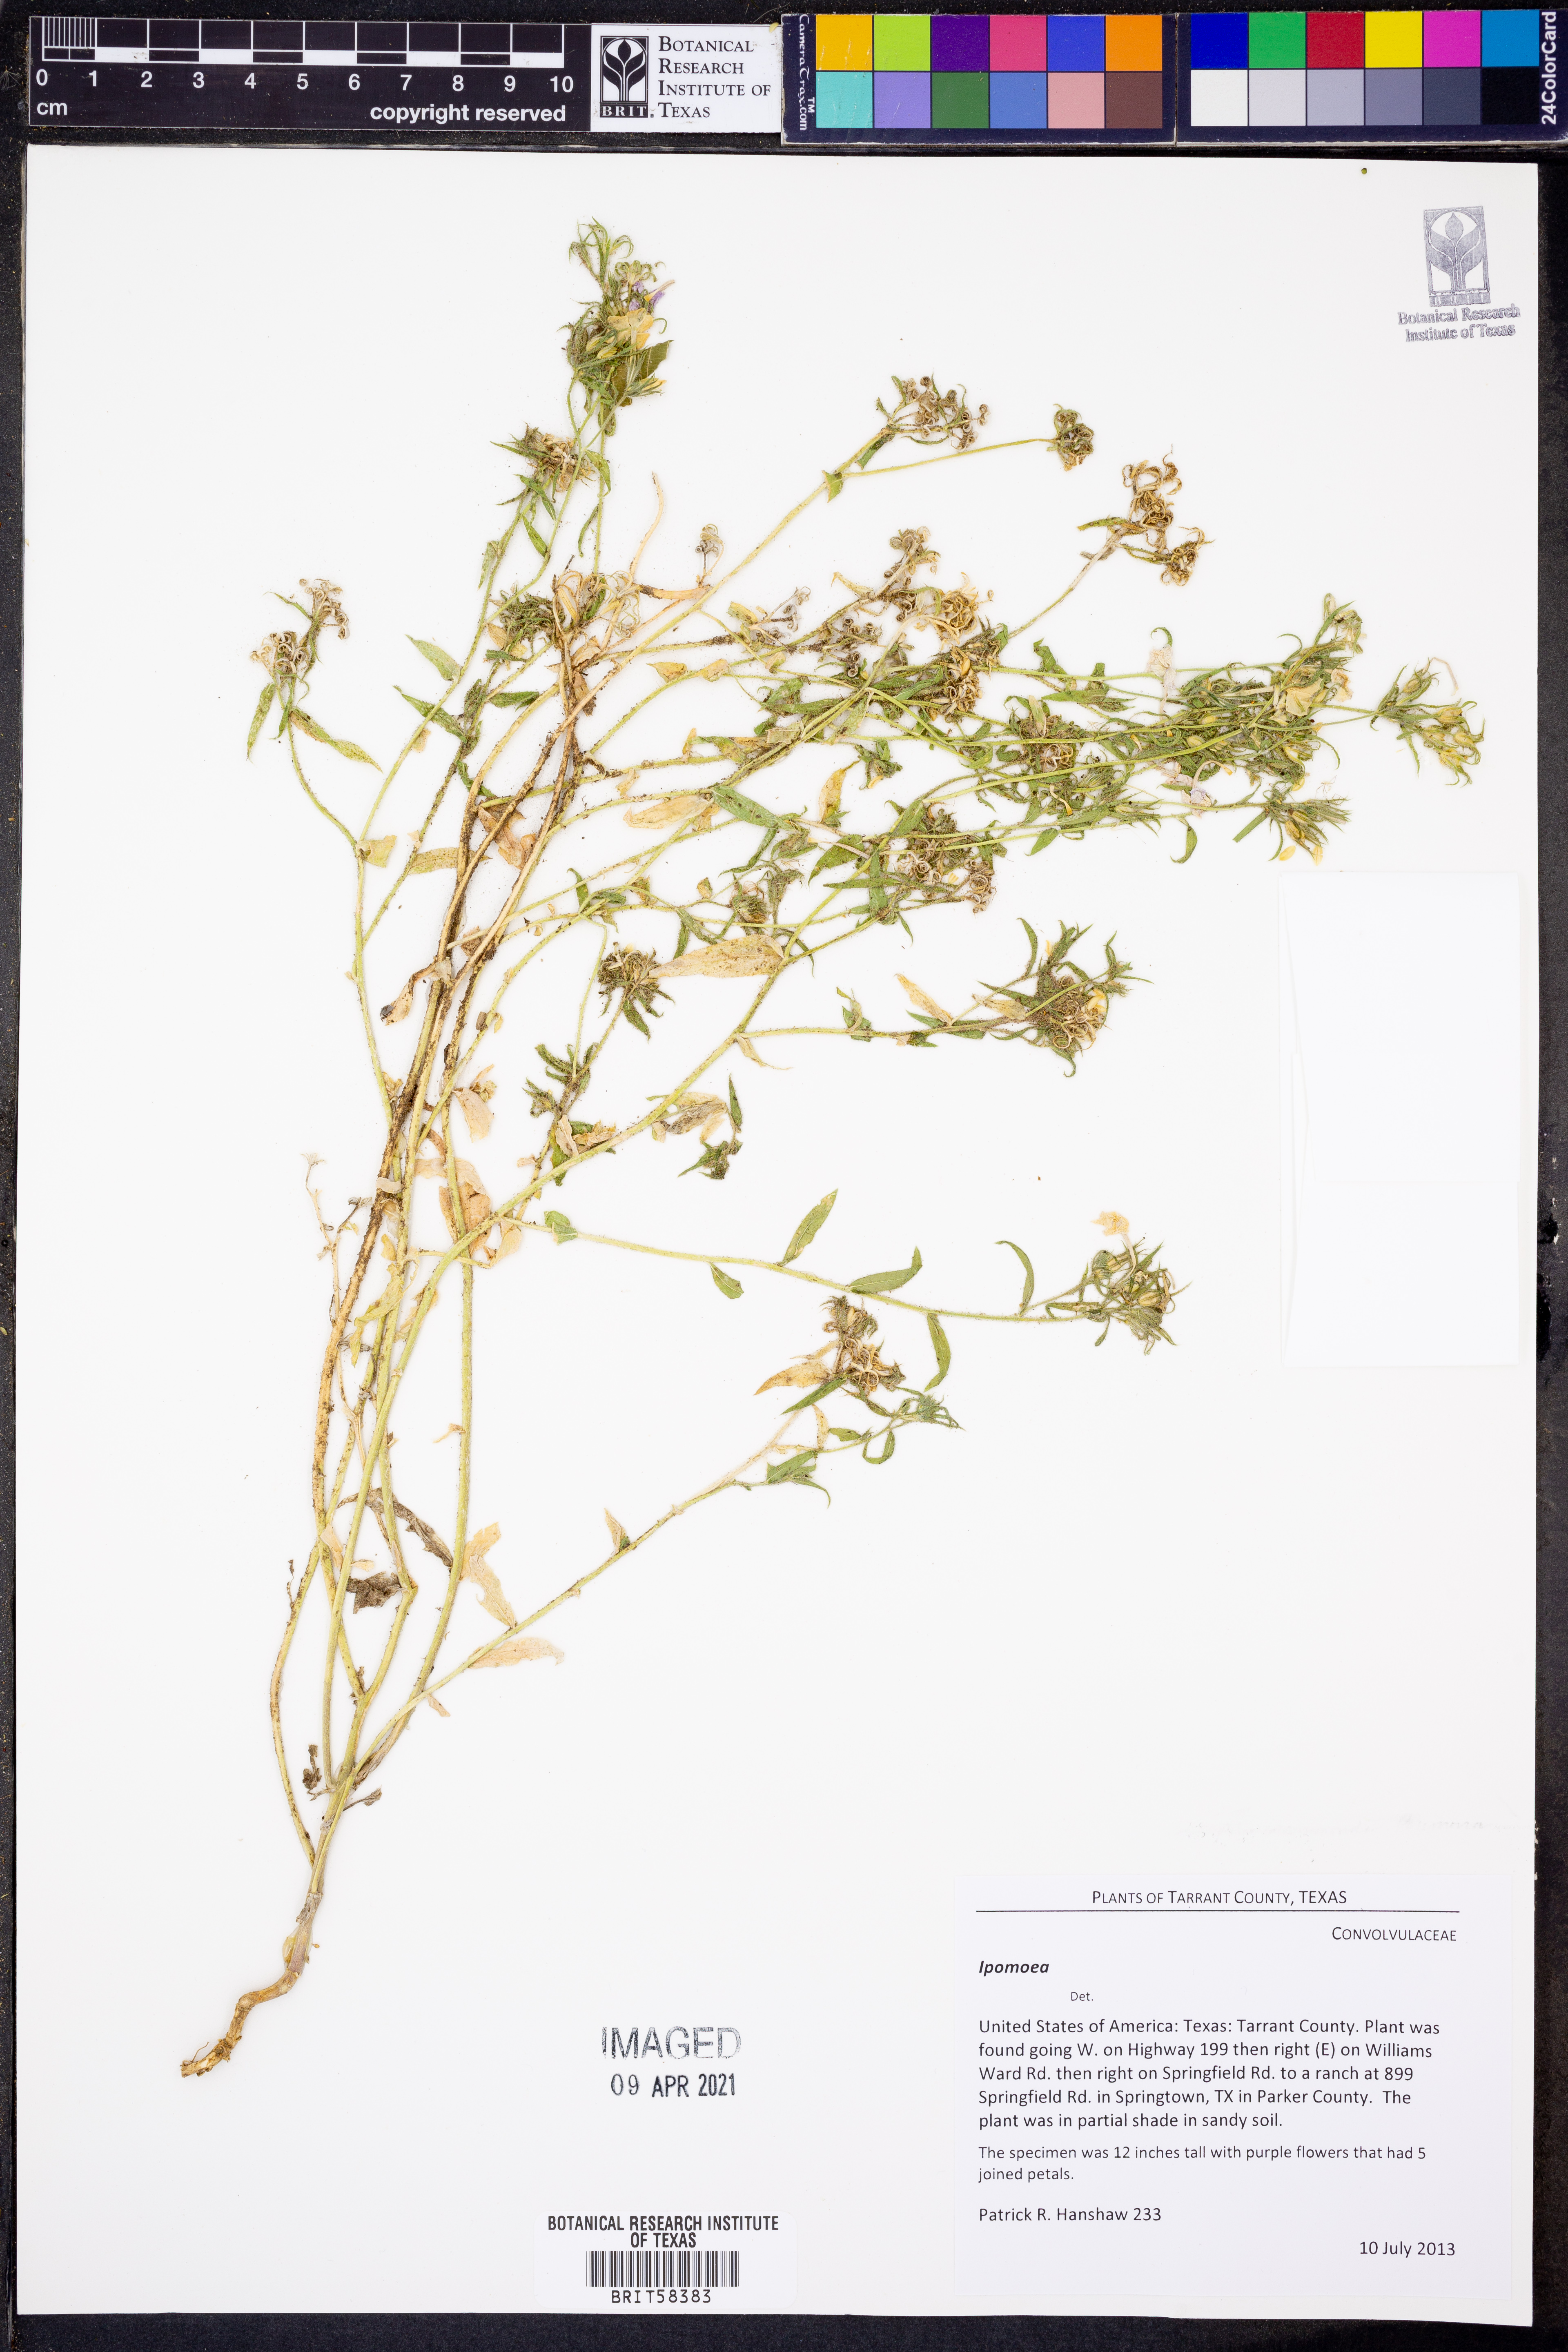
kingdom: Plantae
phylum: Tracheophyta
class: Magnoliopsida
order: Solanales
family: Convolvulaceae
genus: Ipomoea
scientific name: Ipomoea
